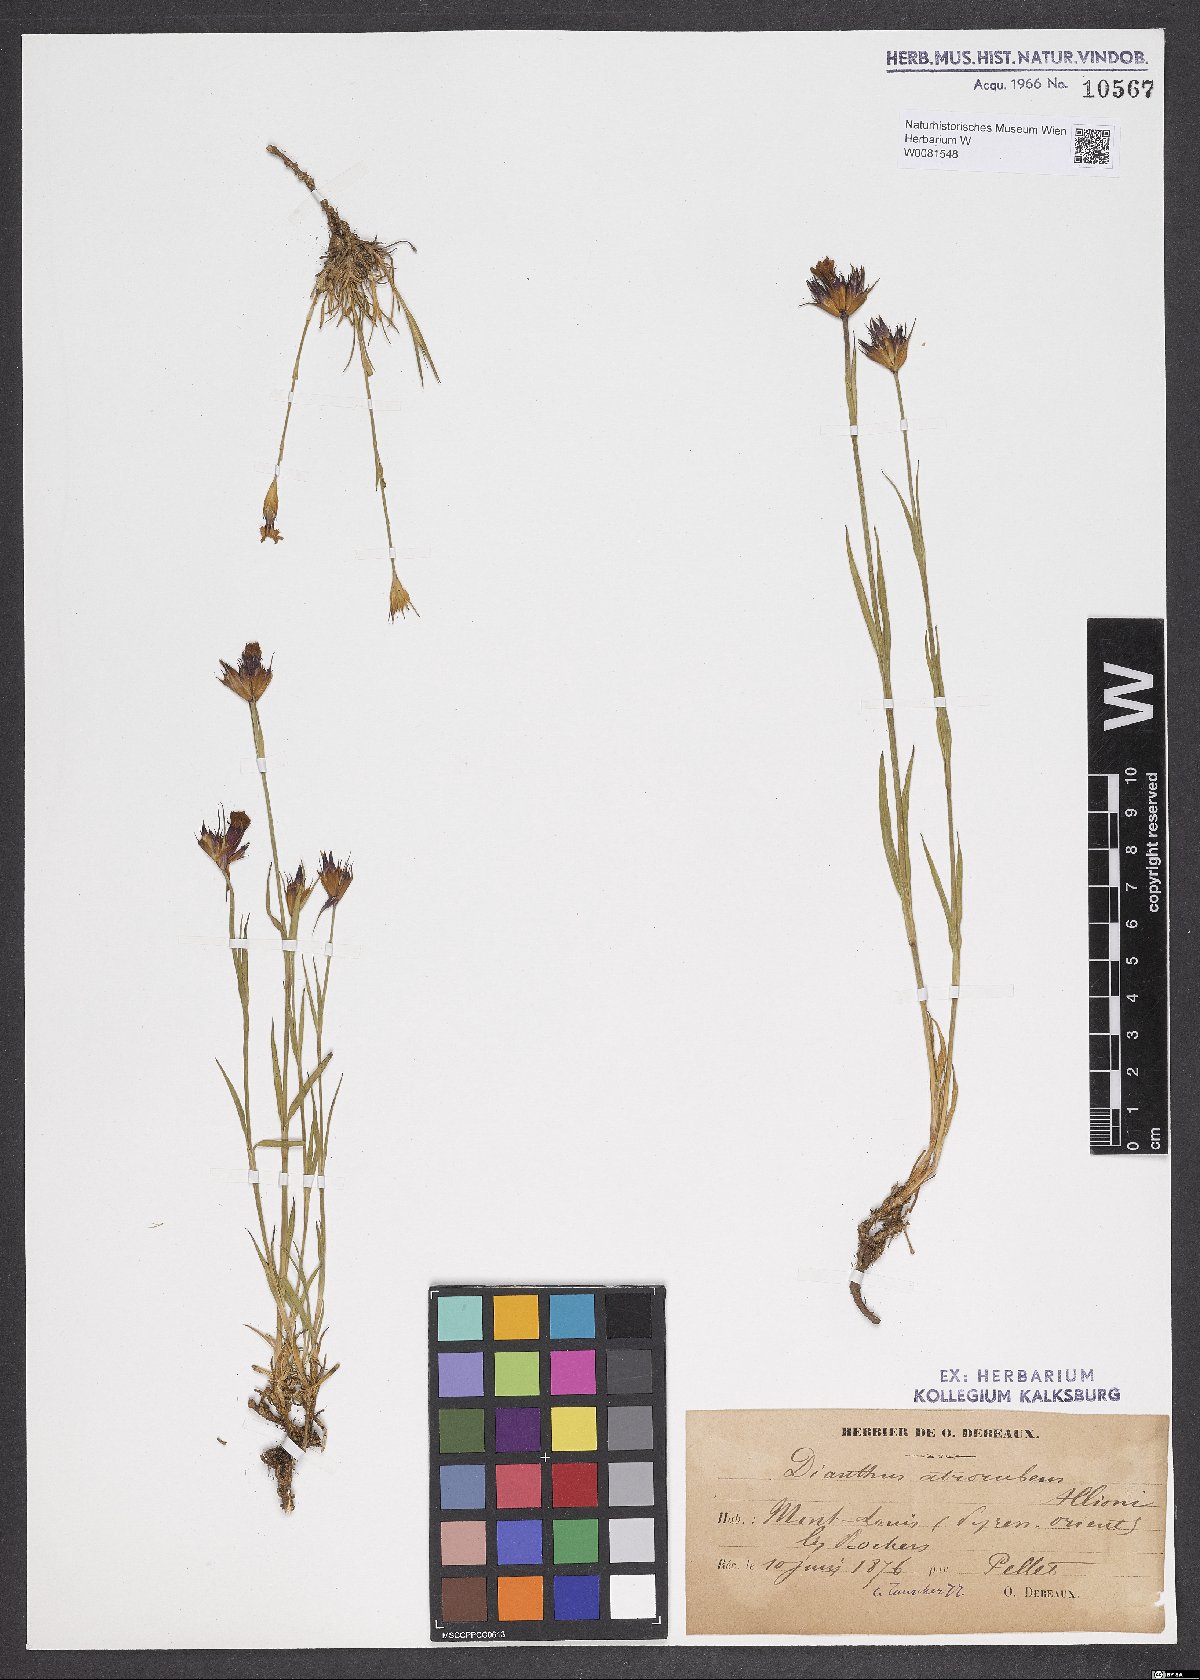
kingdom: Plantae
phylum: Tracheophyta
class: Magnoliopsida
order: Caryophyllales
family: Caryophyllaceae
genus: Dianthus
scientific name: Dianthus carthusianorum
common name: Carthusian pink
